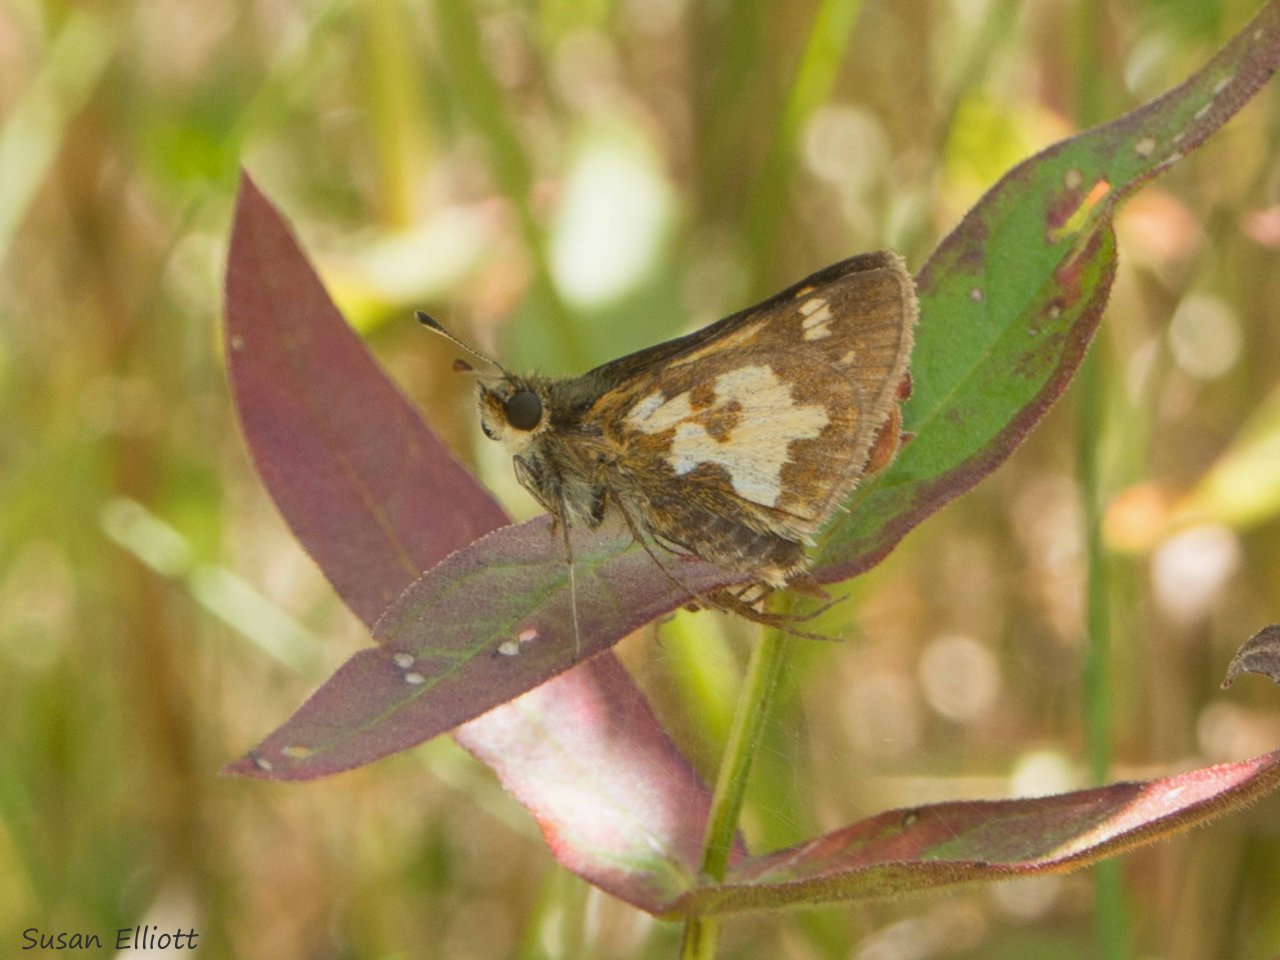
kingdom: Animalia
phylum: Arthropoda
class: Insecta
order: Lepidoptera
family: Hesperiidae
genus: Polites
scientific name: Polites coras
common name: Peck's Skipper
